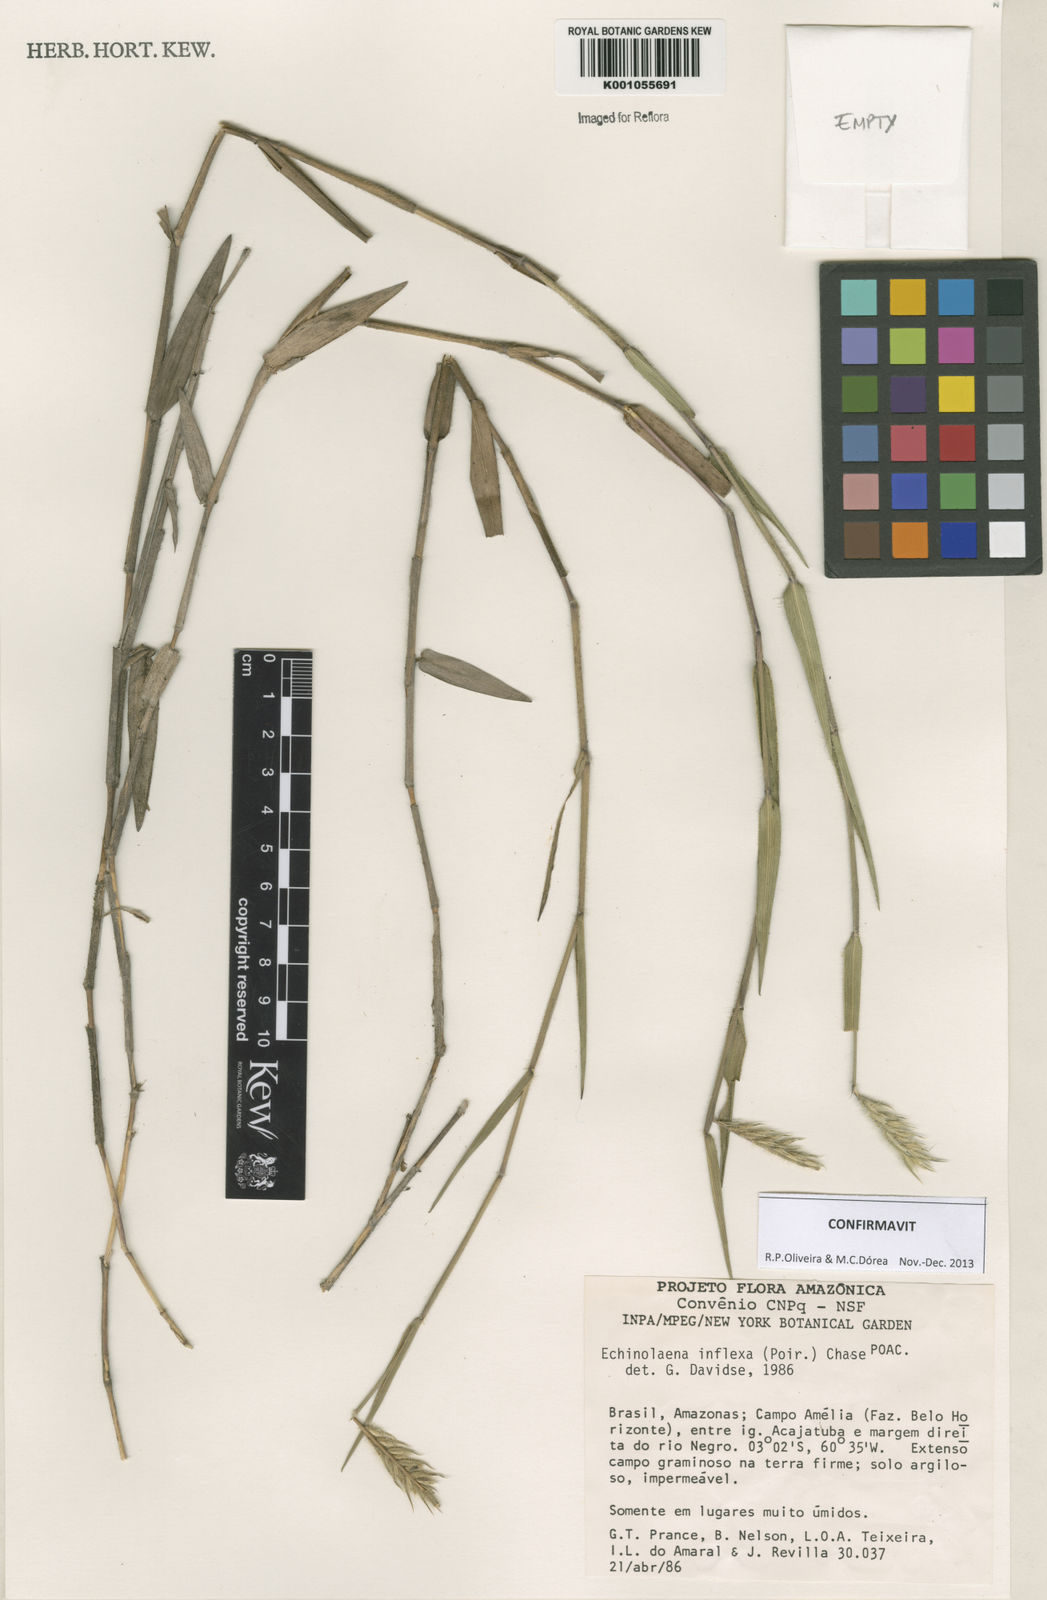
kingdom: Plantae
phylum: Tracheophyta
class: Liliopsida
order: Poales
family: Poaceae
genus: Echinolaena
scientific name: Echinolaena inflexa
